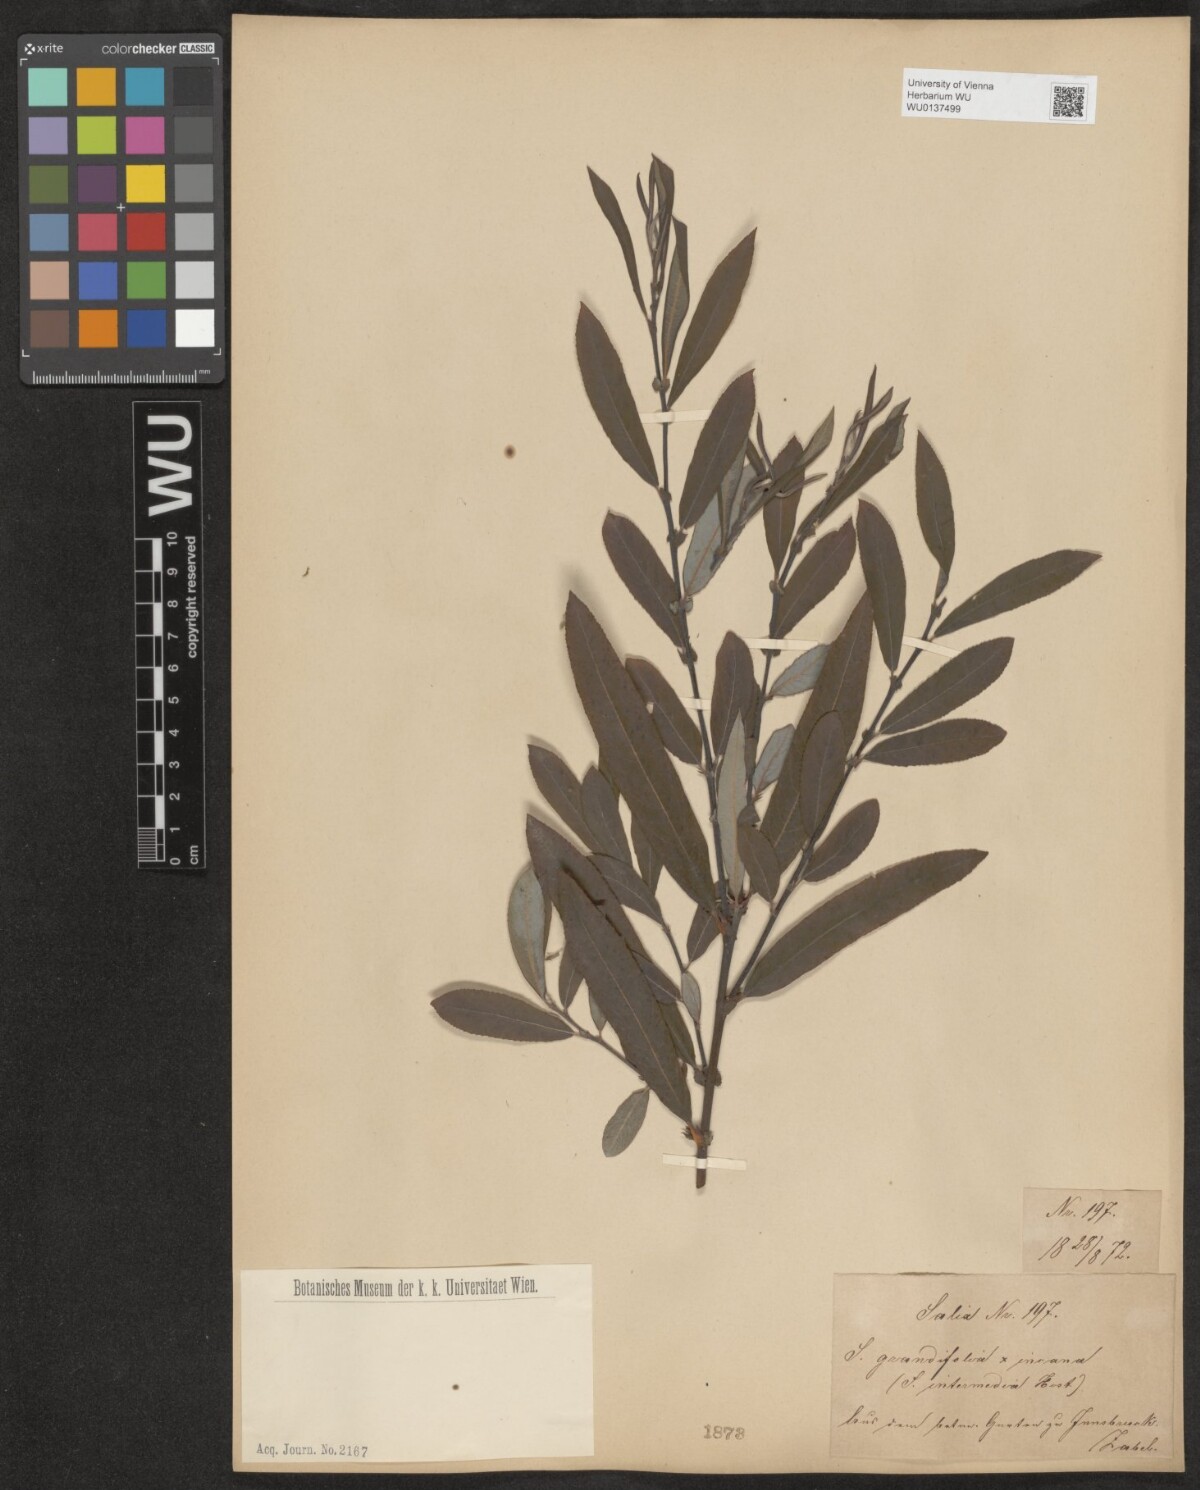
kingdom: Plantae
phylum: Tracheophyta
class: Magnoliopsida
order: Malpighiales
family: Salicaceae
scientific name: Salicaceae
